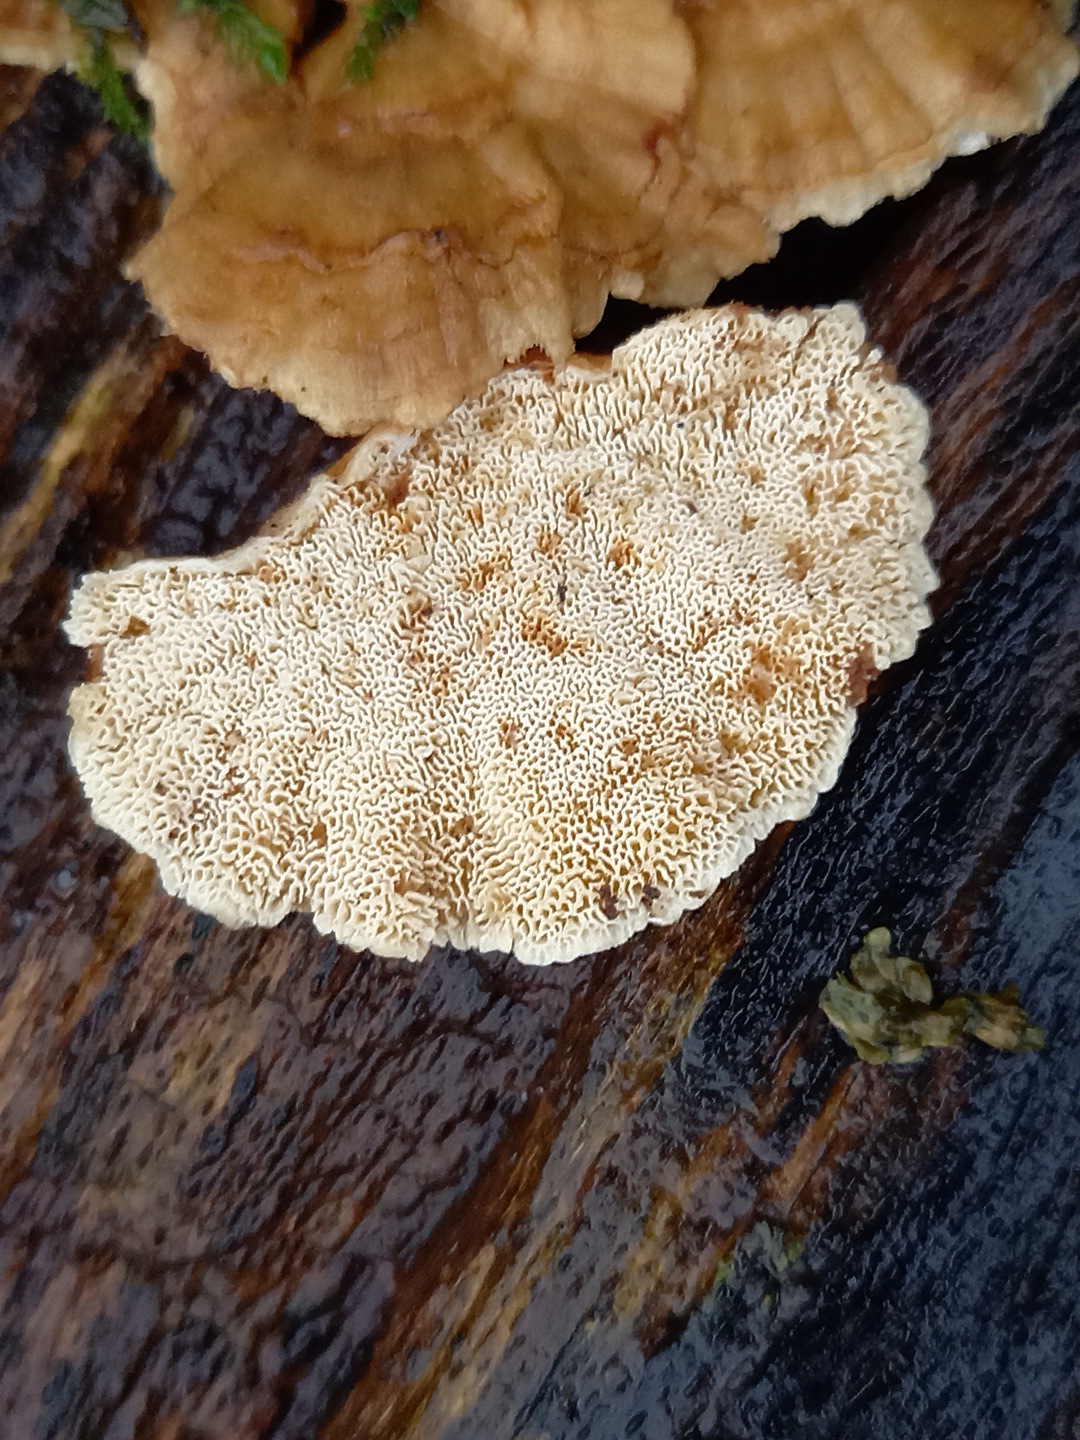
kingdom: Fungi
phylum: Basidiomycota
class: Agaricomycetes
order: Polyporales
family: Polyporaceae
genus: Trametes
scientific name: Trametes ochracea
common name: bæltet læderporesvamp
